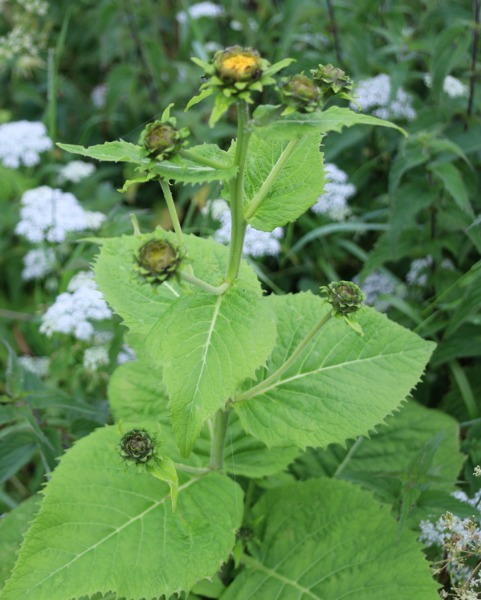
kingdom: Plantae
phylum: Tracheophyta
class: Magnoliopsida
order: Asterales
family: Asteraceae
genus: Telekia
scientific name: Telekia speciosa
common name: Tusindstråle
